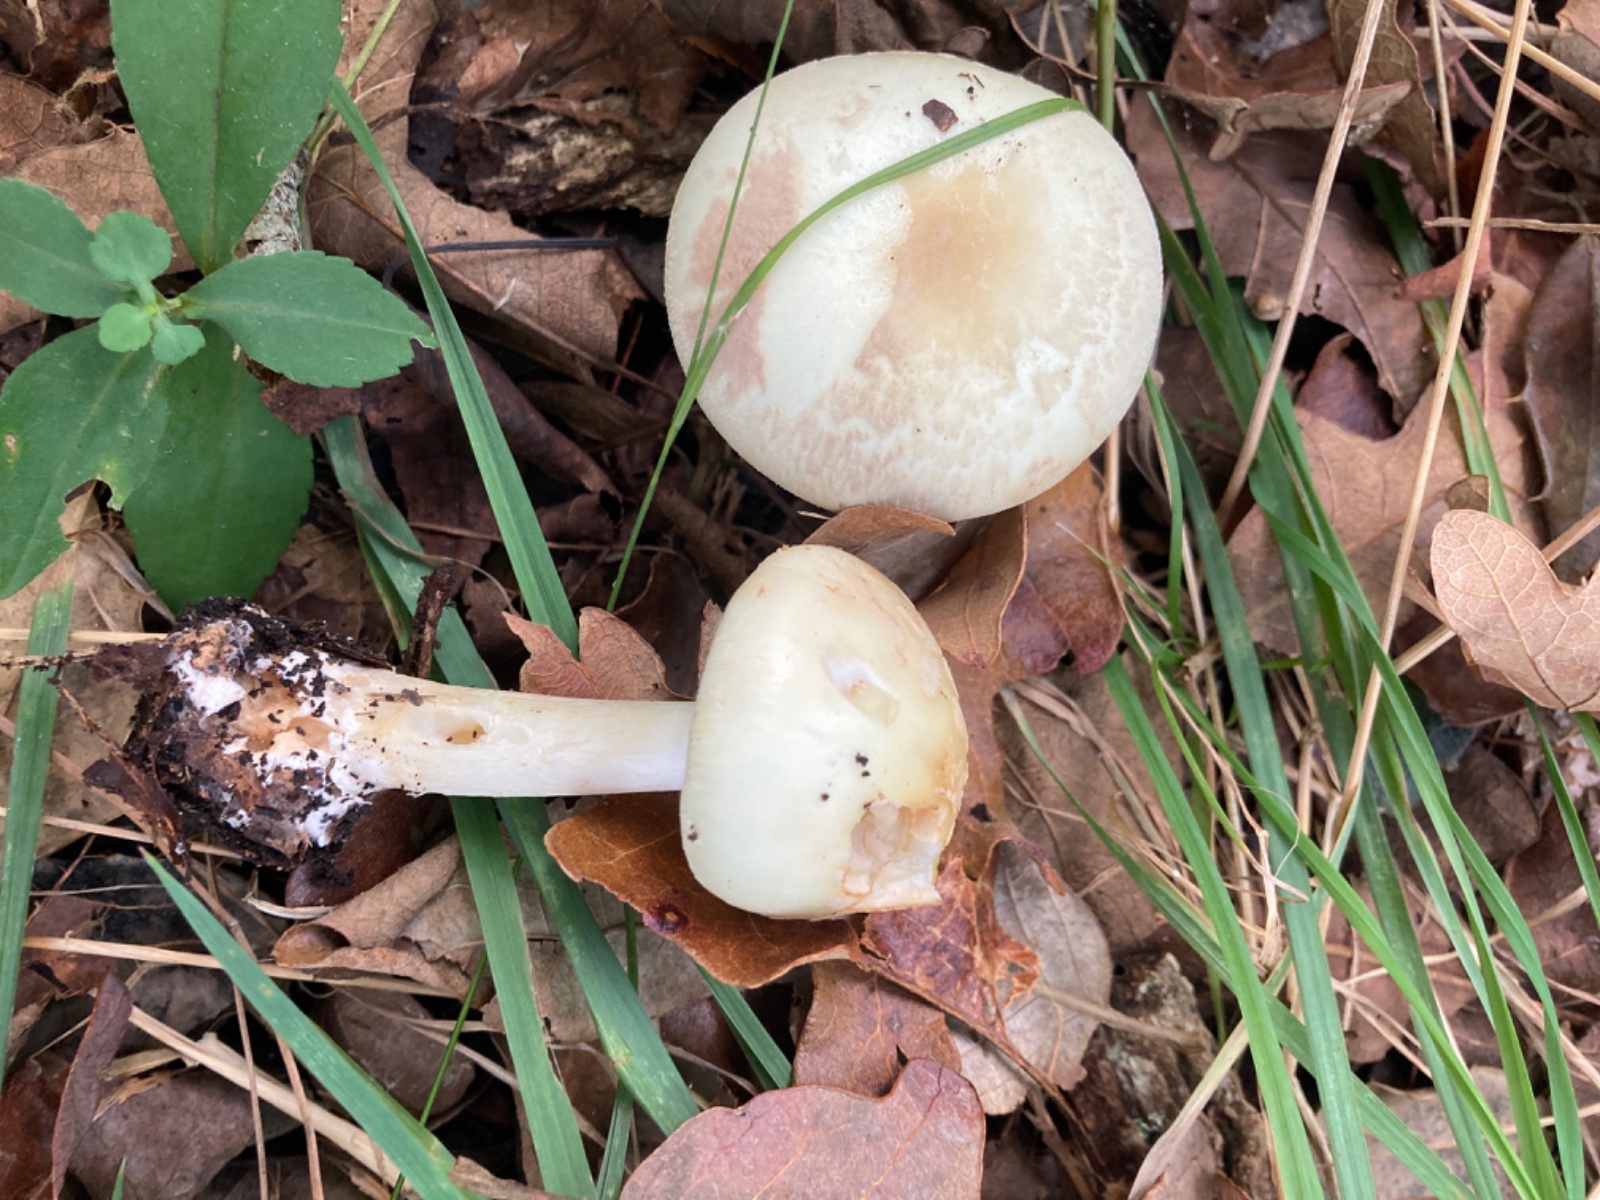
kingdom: Fungi
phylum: Basidiomycota
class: Agaricomycetes
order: Agaricales
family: Amanitaceae
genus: Amanita
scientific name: Amanita citrina
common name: kugleknoldet fluesvamp
